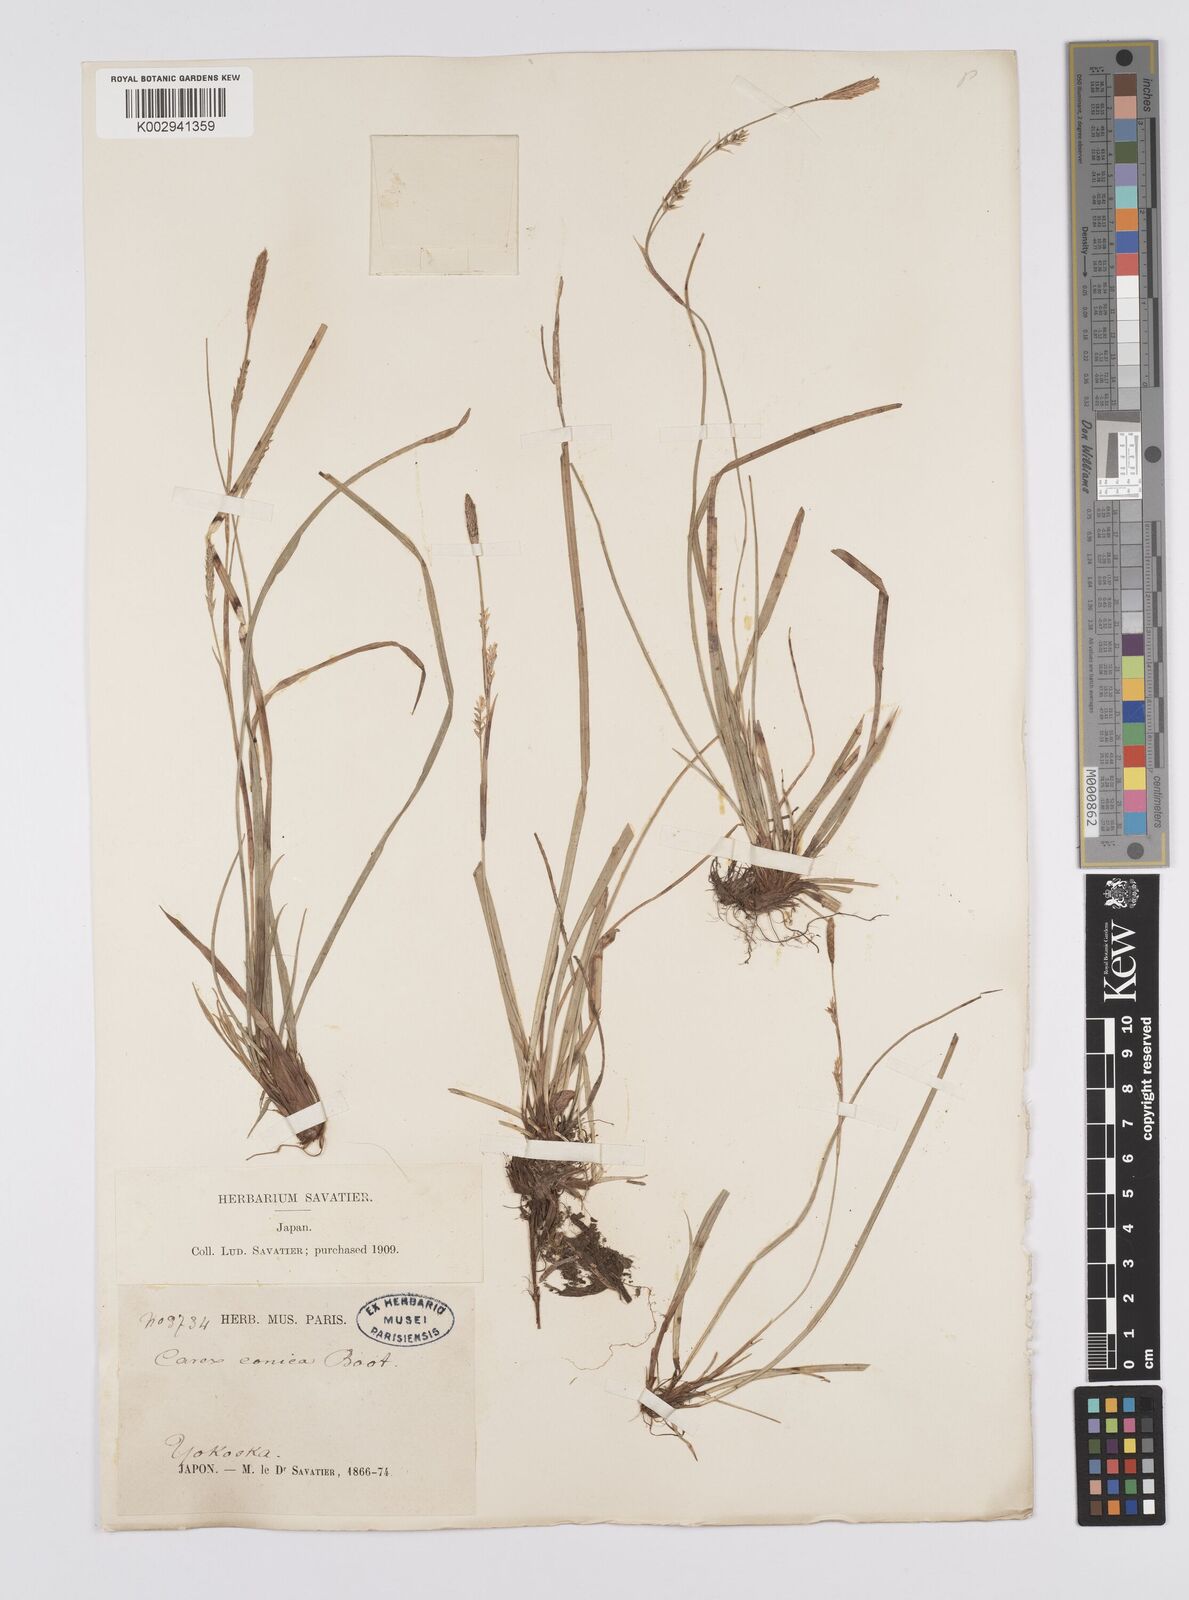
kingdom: Plantae
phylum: Tracheophyta
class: Liliopsida
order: Poales
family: Cyperaceae
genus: Carex
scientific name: Carex conica
